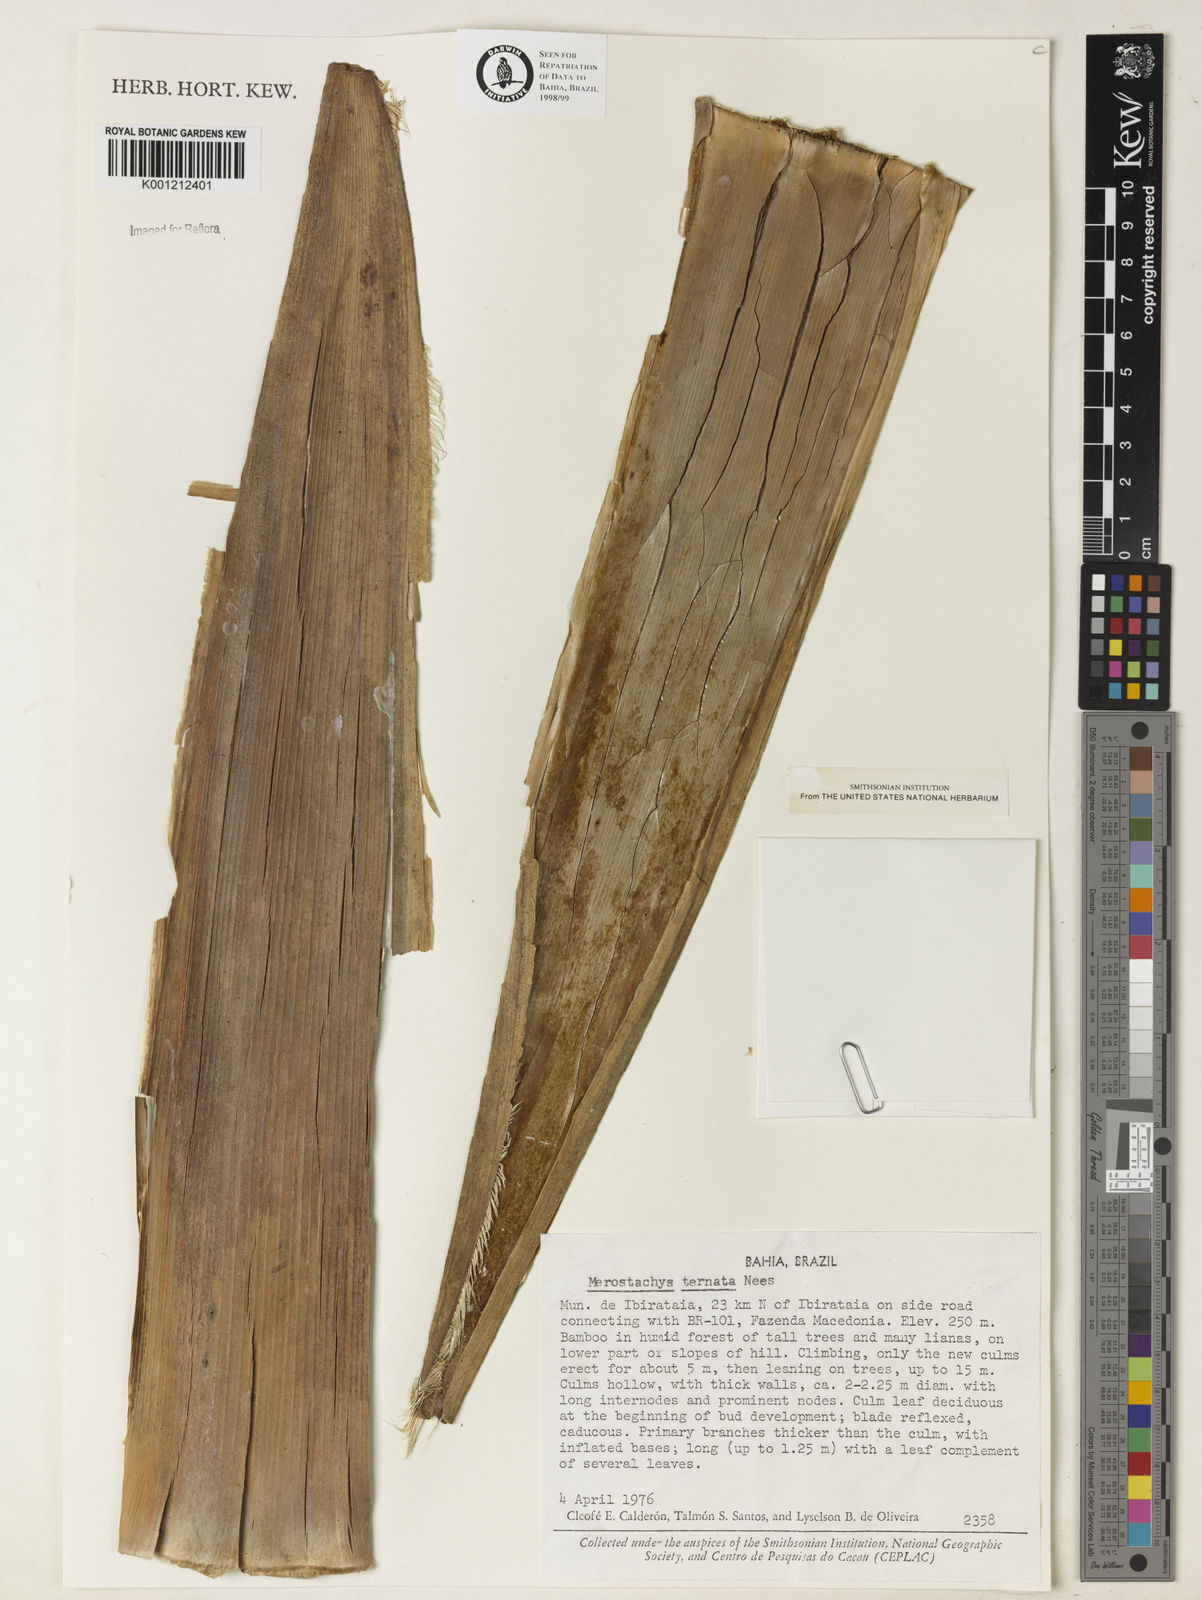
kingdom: Plantae
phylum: Tracheophyta
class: Liliopsida
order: Poales
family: Poaceae
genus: Merostachys
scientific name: Merostachys ternata
